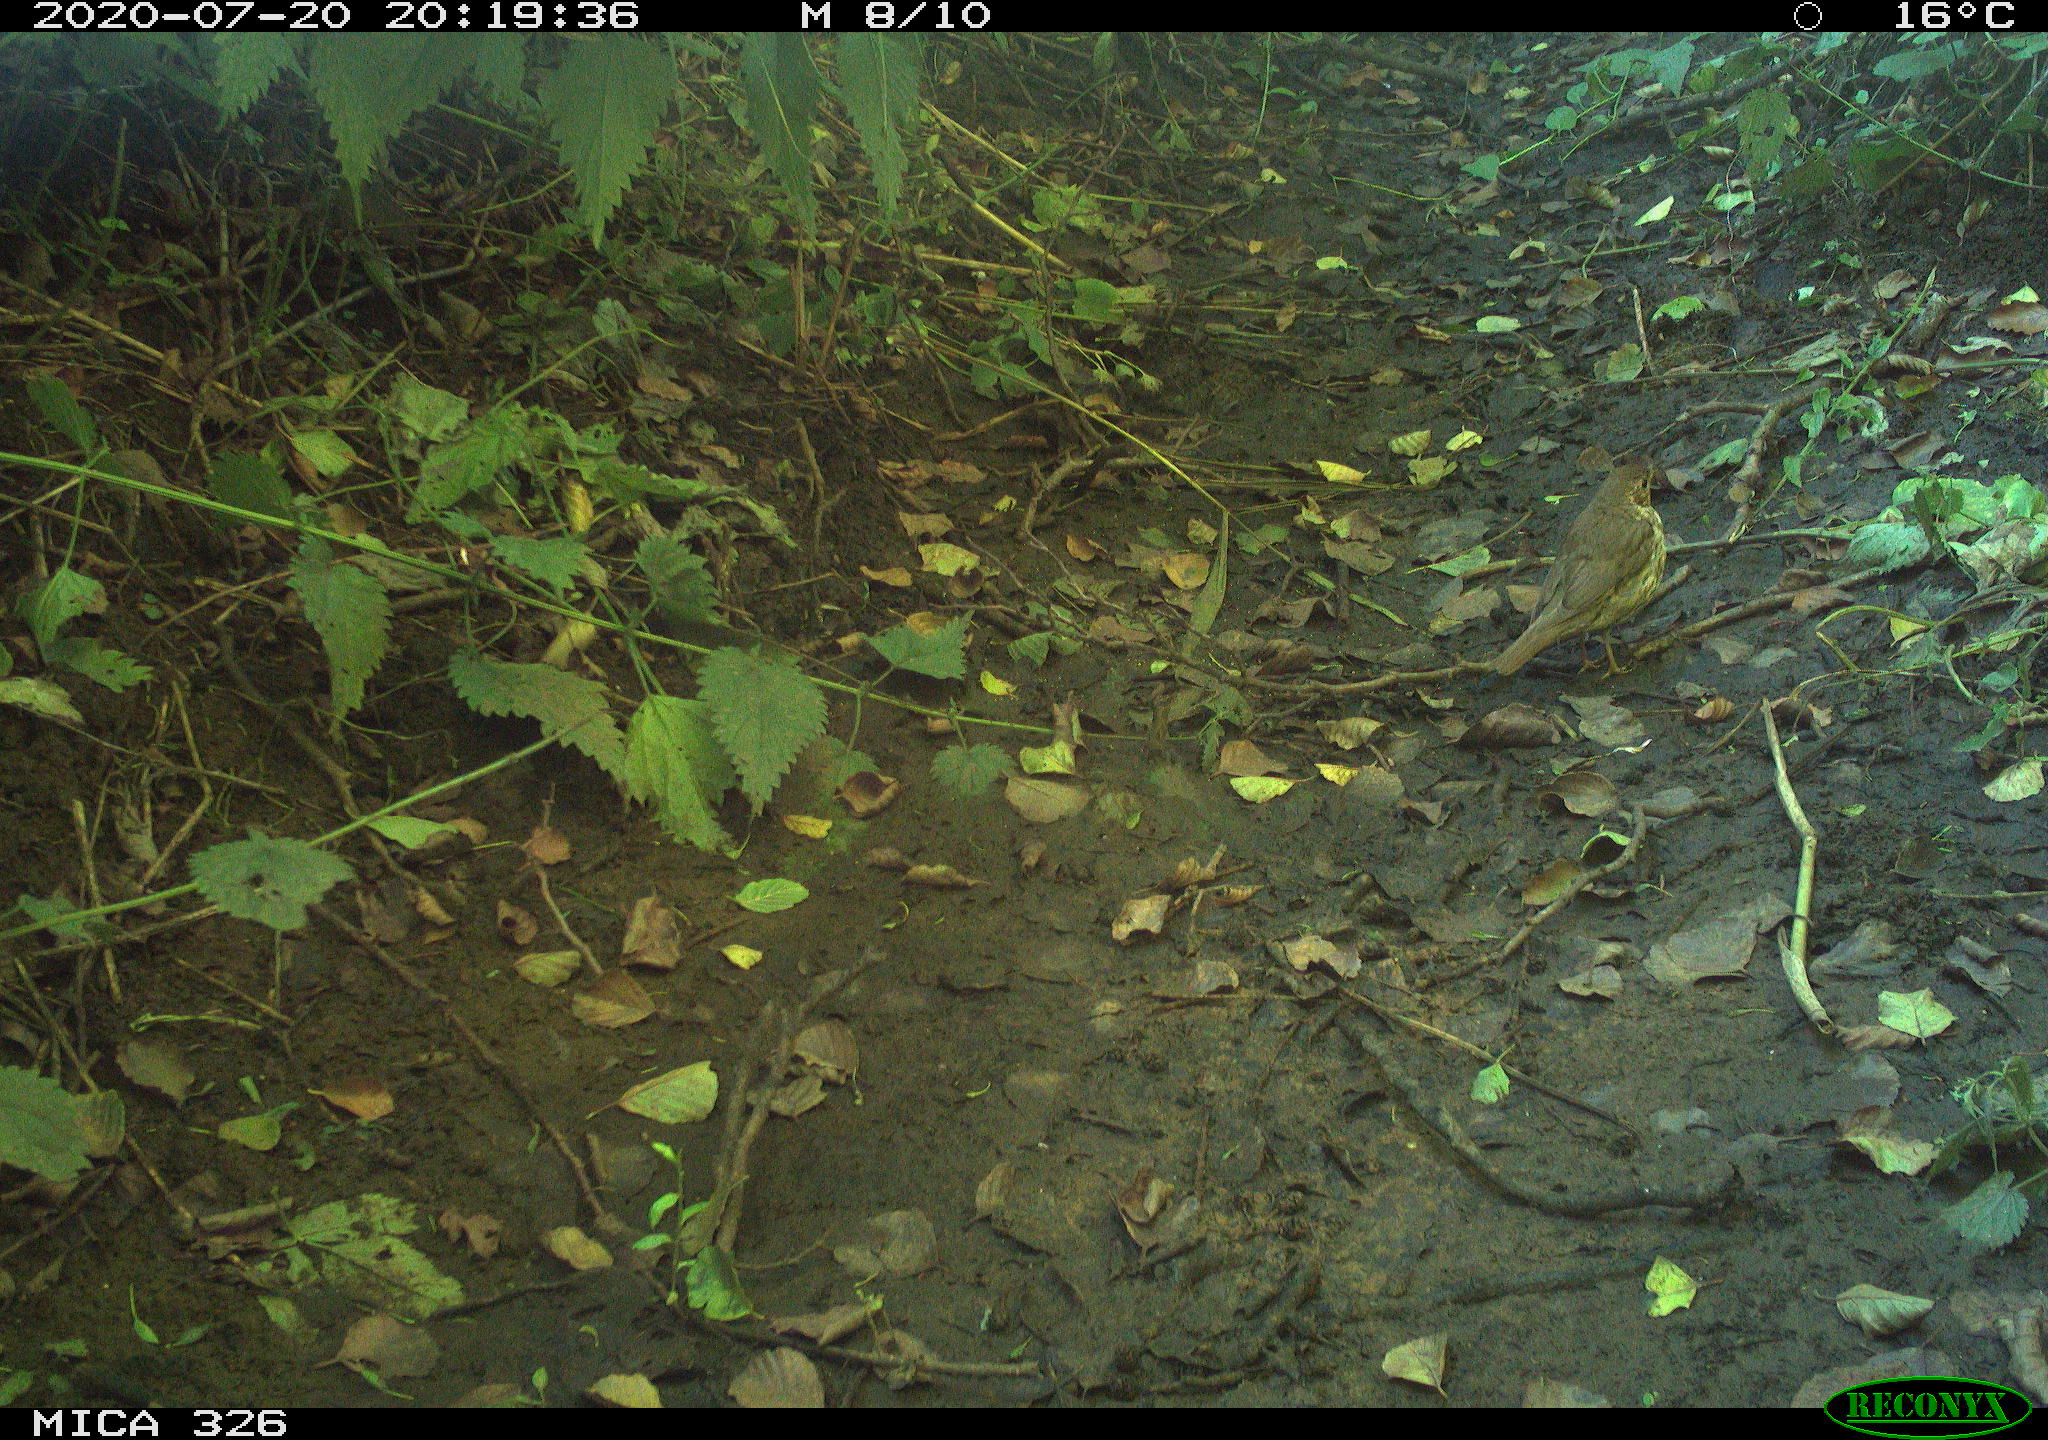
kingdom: Animalia
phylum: Chordata
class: Aves
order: Passeriformes
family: Turdidae
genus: Turdus
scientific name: Turdus philomelos
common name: Song thrush
